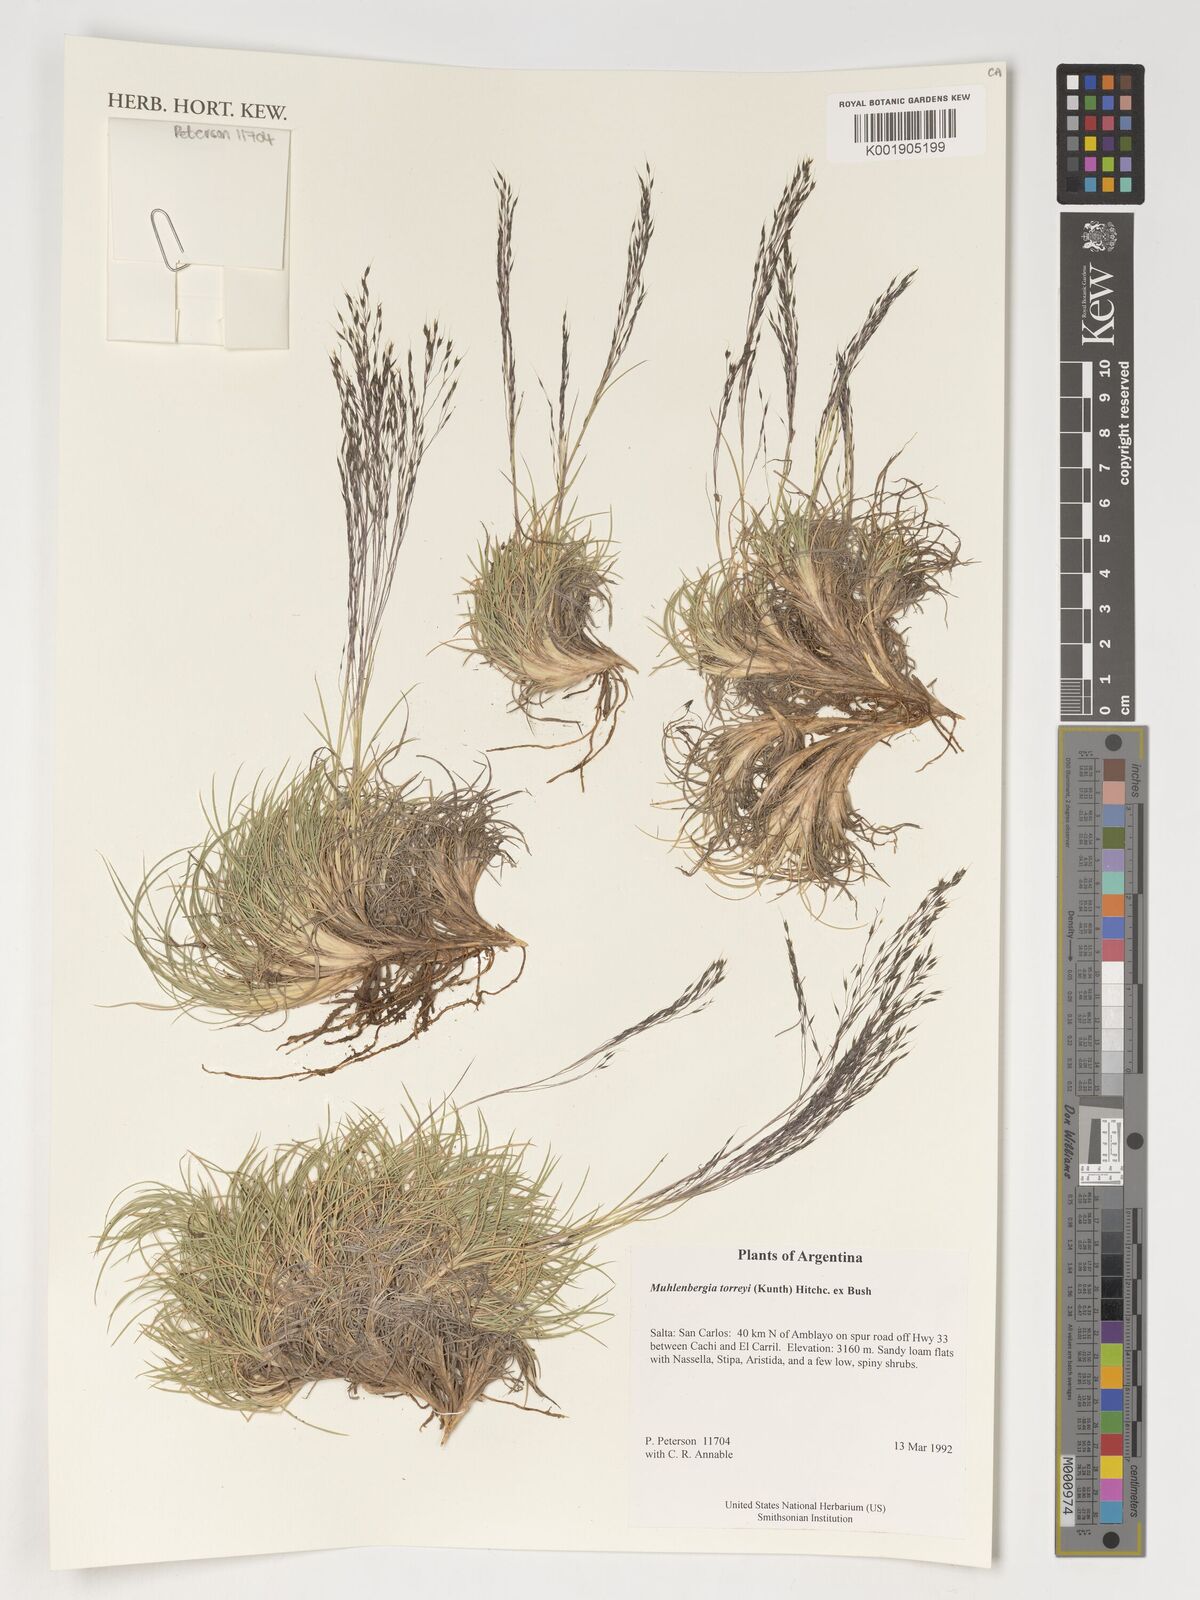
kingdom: Plantae
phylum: Tracheophyta
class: Liliopsida
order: Poales
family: Poaceae
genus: Muhlenbergia
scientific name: Muhlenbergia torreyi
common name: Ring grass
